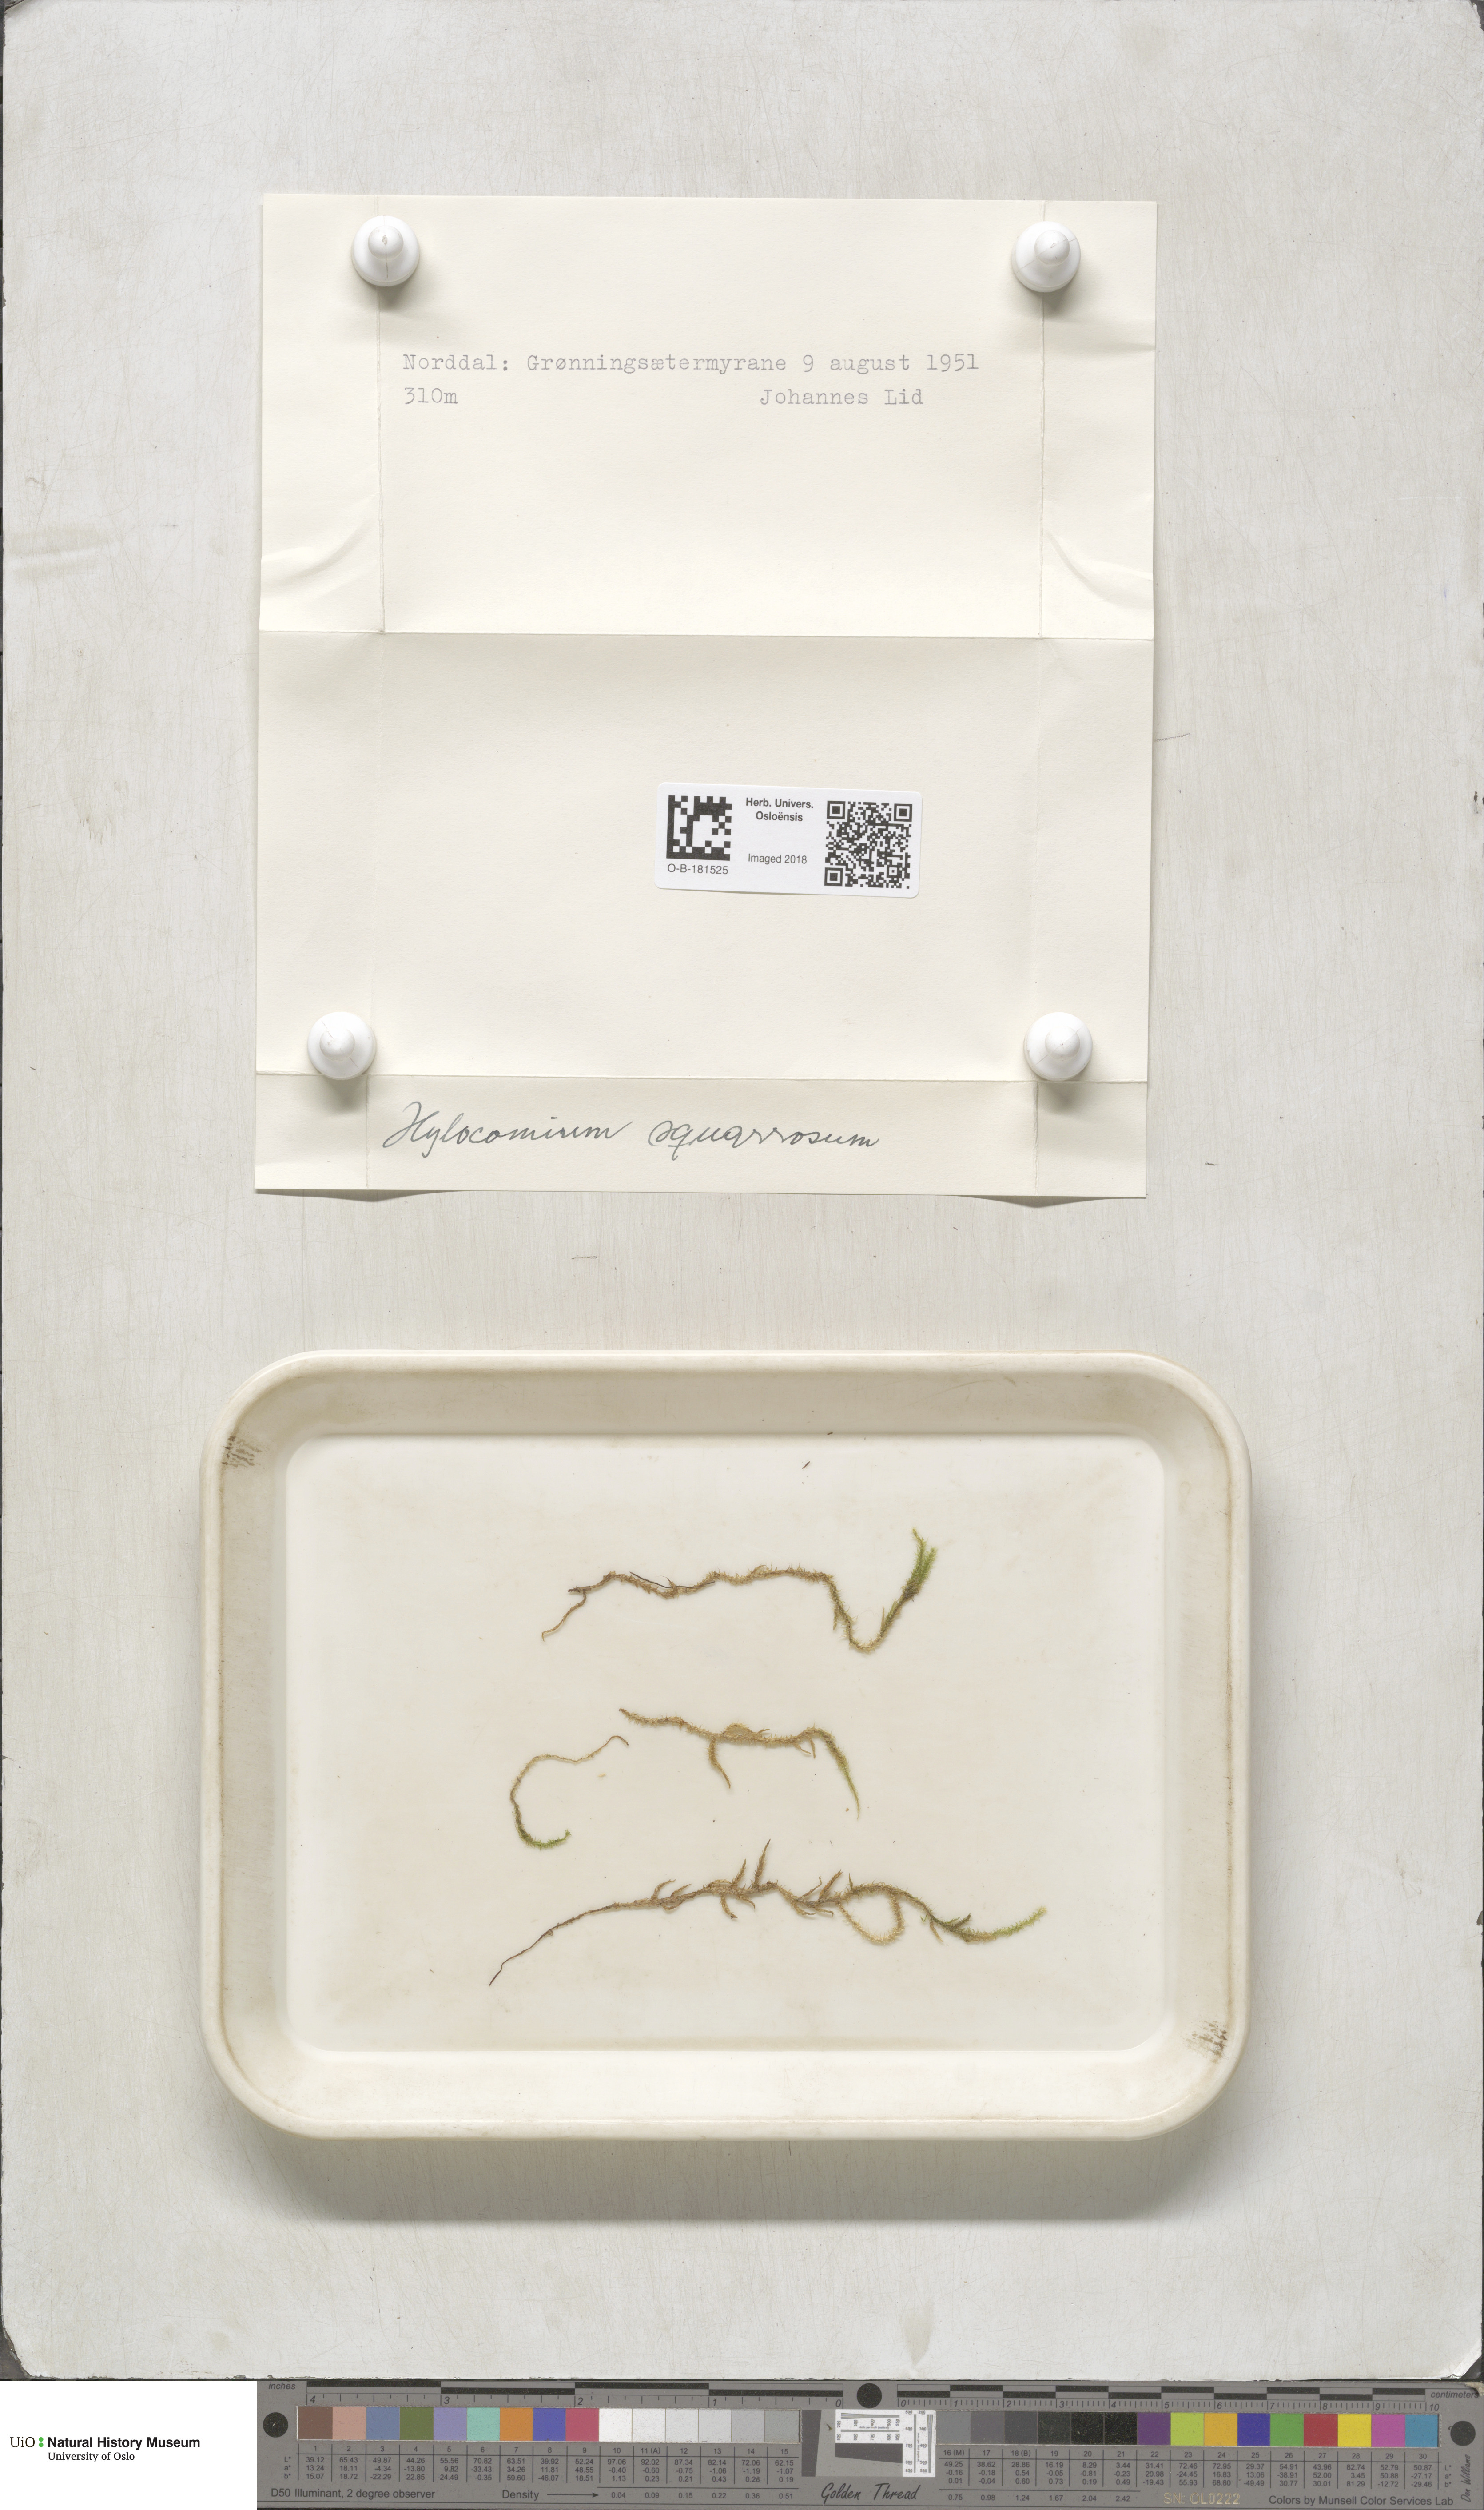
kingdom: Plantae
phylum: Bryophyta
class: Bryopsida
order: Hypnales
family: Hylocomiaceae
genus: Rhytidiadelphus
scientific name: Rhytidiadelphus squarrosus
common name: Springy turf-moss
